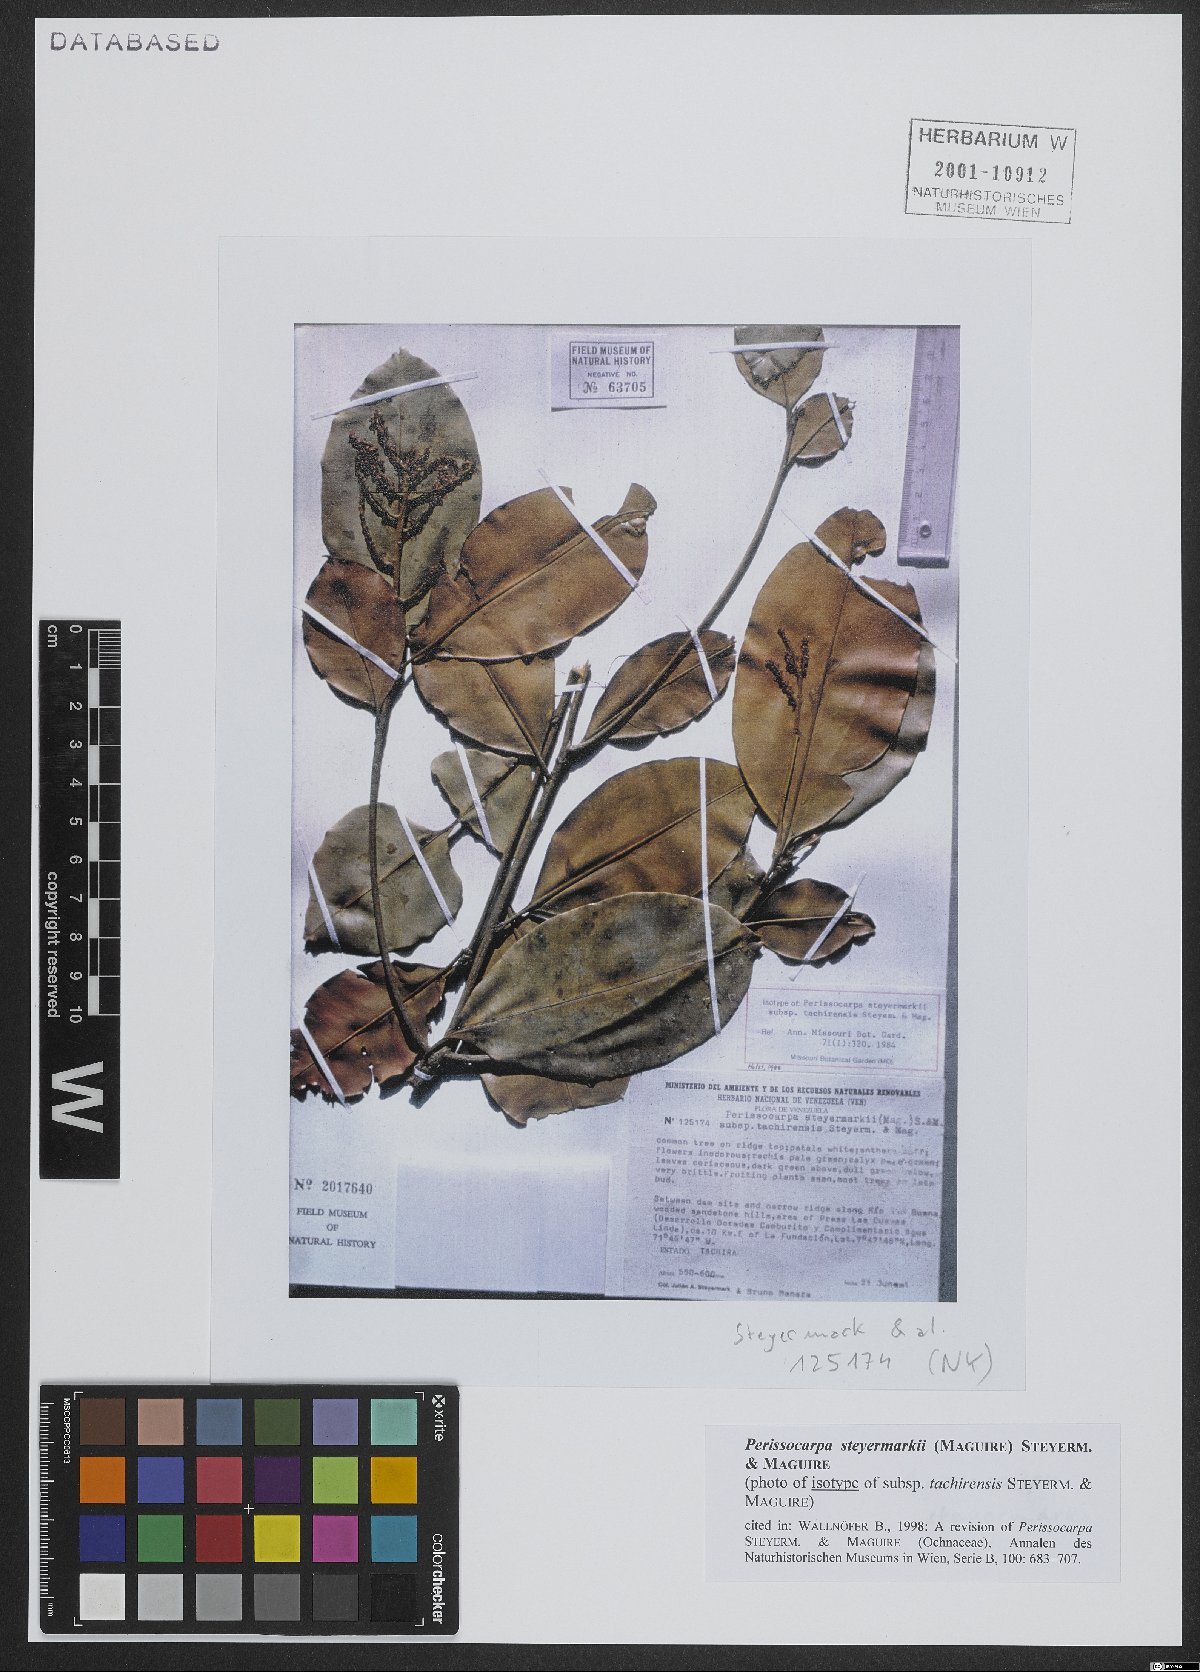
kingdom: Plantae
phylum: Tracheophyta
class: Magnoliopsida
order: Malpighiales
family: Ochnaceae
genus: Perissocarpa
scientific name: Perissocarpa steyermarkii
